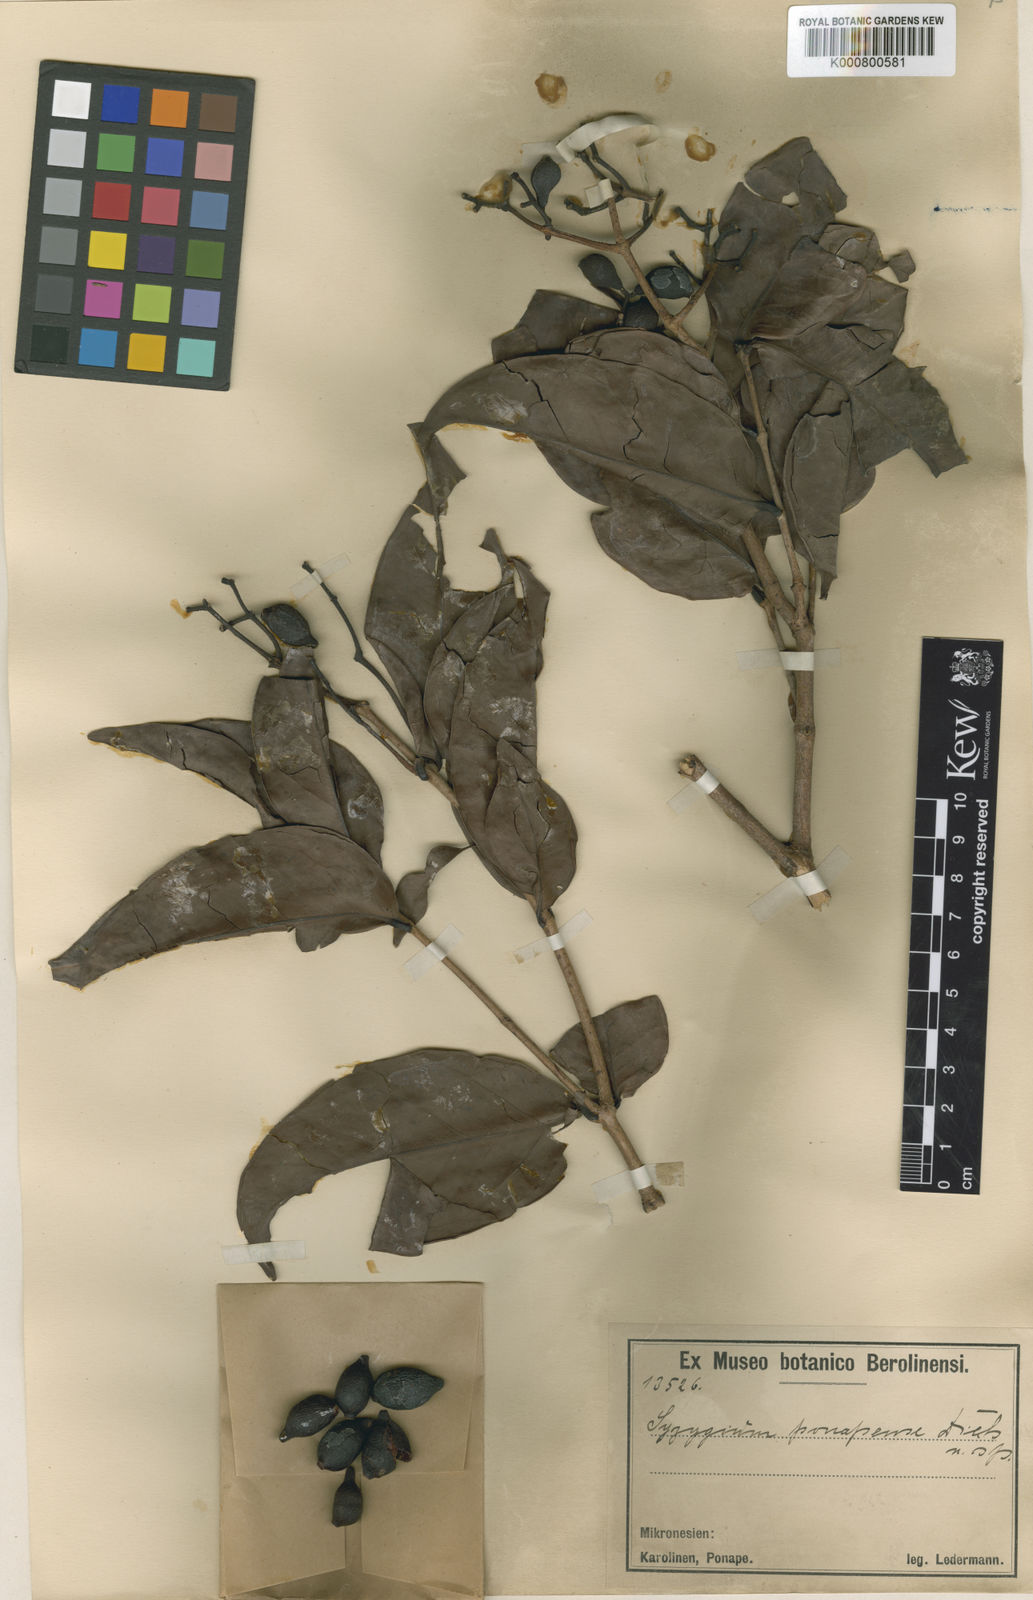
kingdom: Plantae
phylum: Tracheophyta
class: Magnoliopsida
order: Myrtales
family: Myrtaceae
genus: Syzygium
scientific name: Syzygium carolinense
